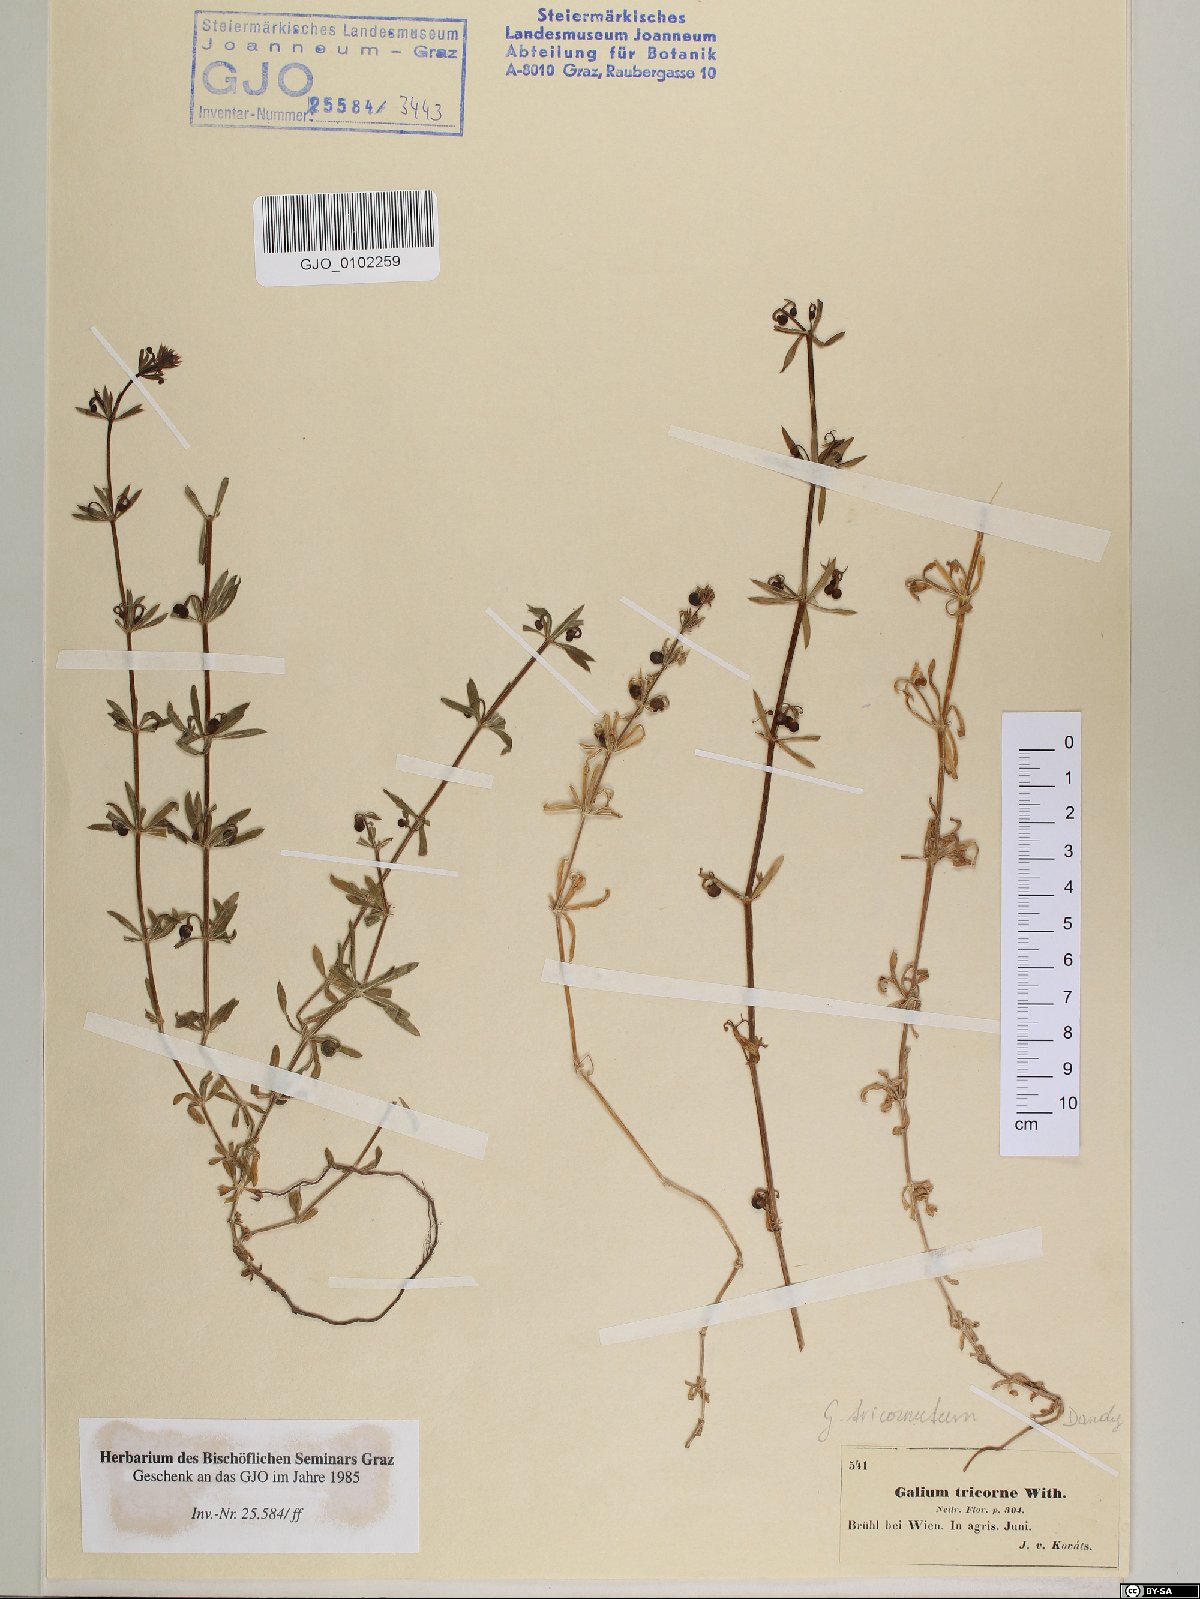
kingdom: Plantae
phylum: Tracheophyta
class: Magnoliopsida
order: Gentianales
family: Rubiaceae
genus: Galium
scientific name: Galium verrucosum
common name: Warty bedstraw
